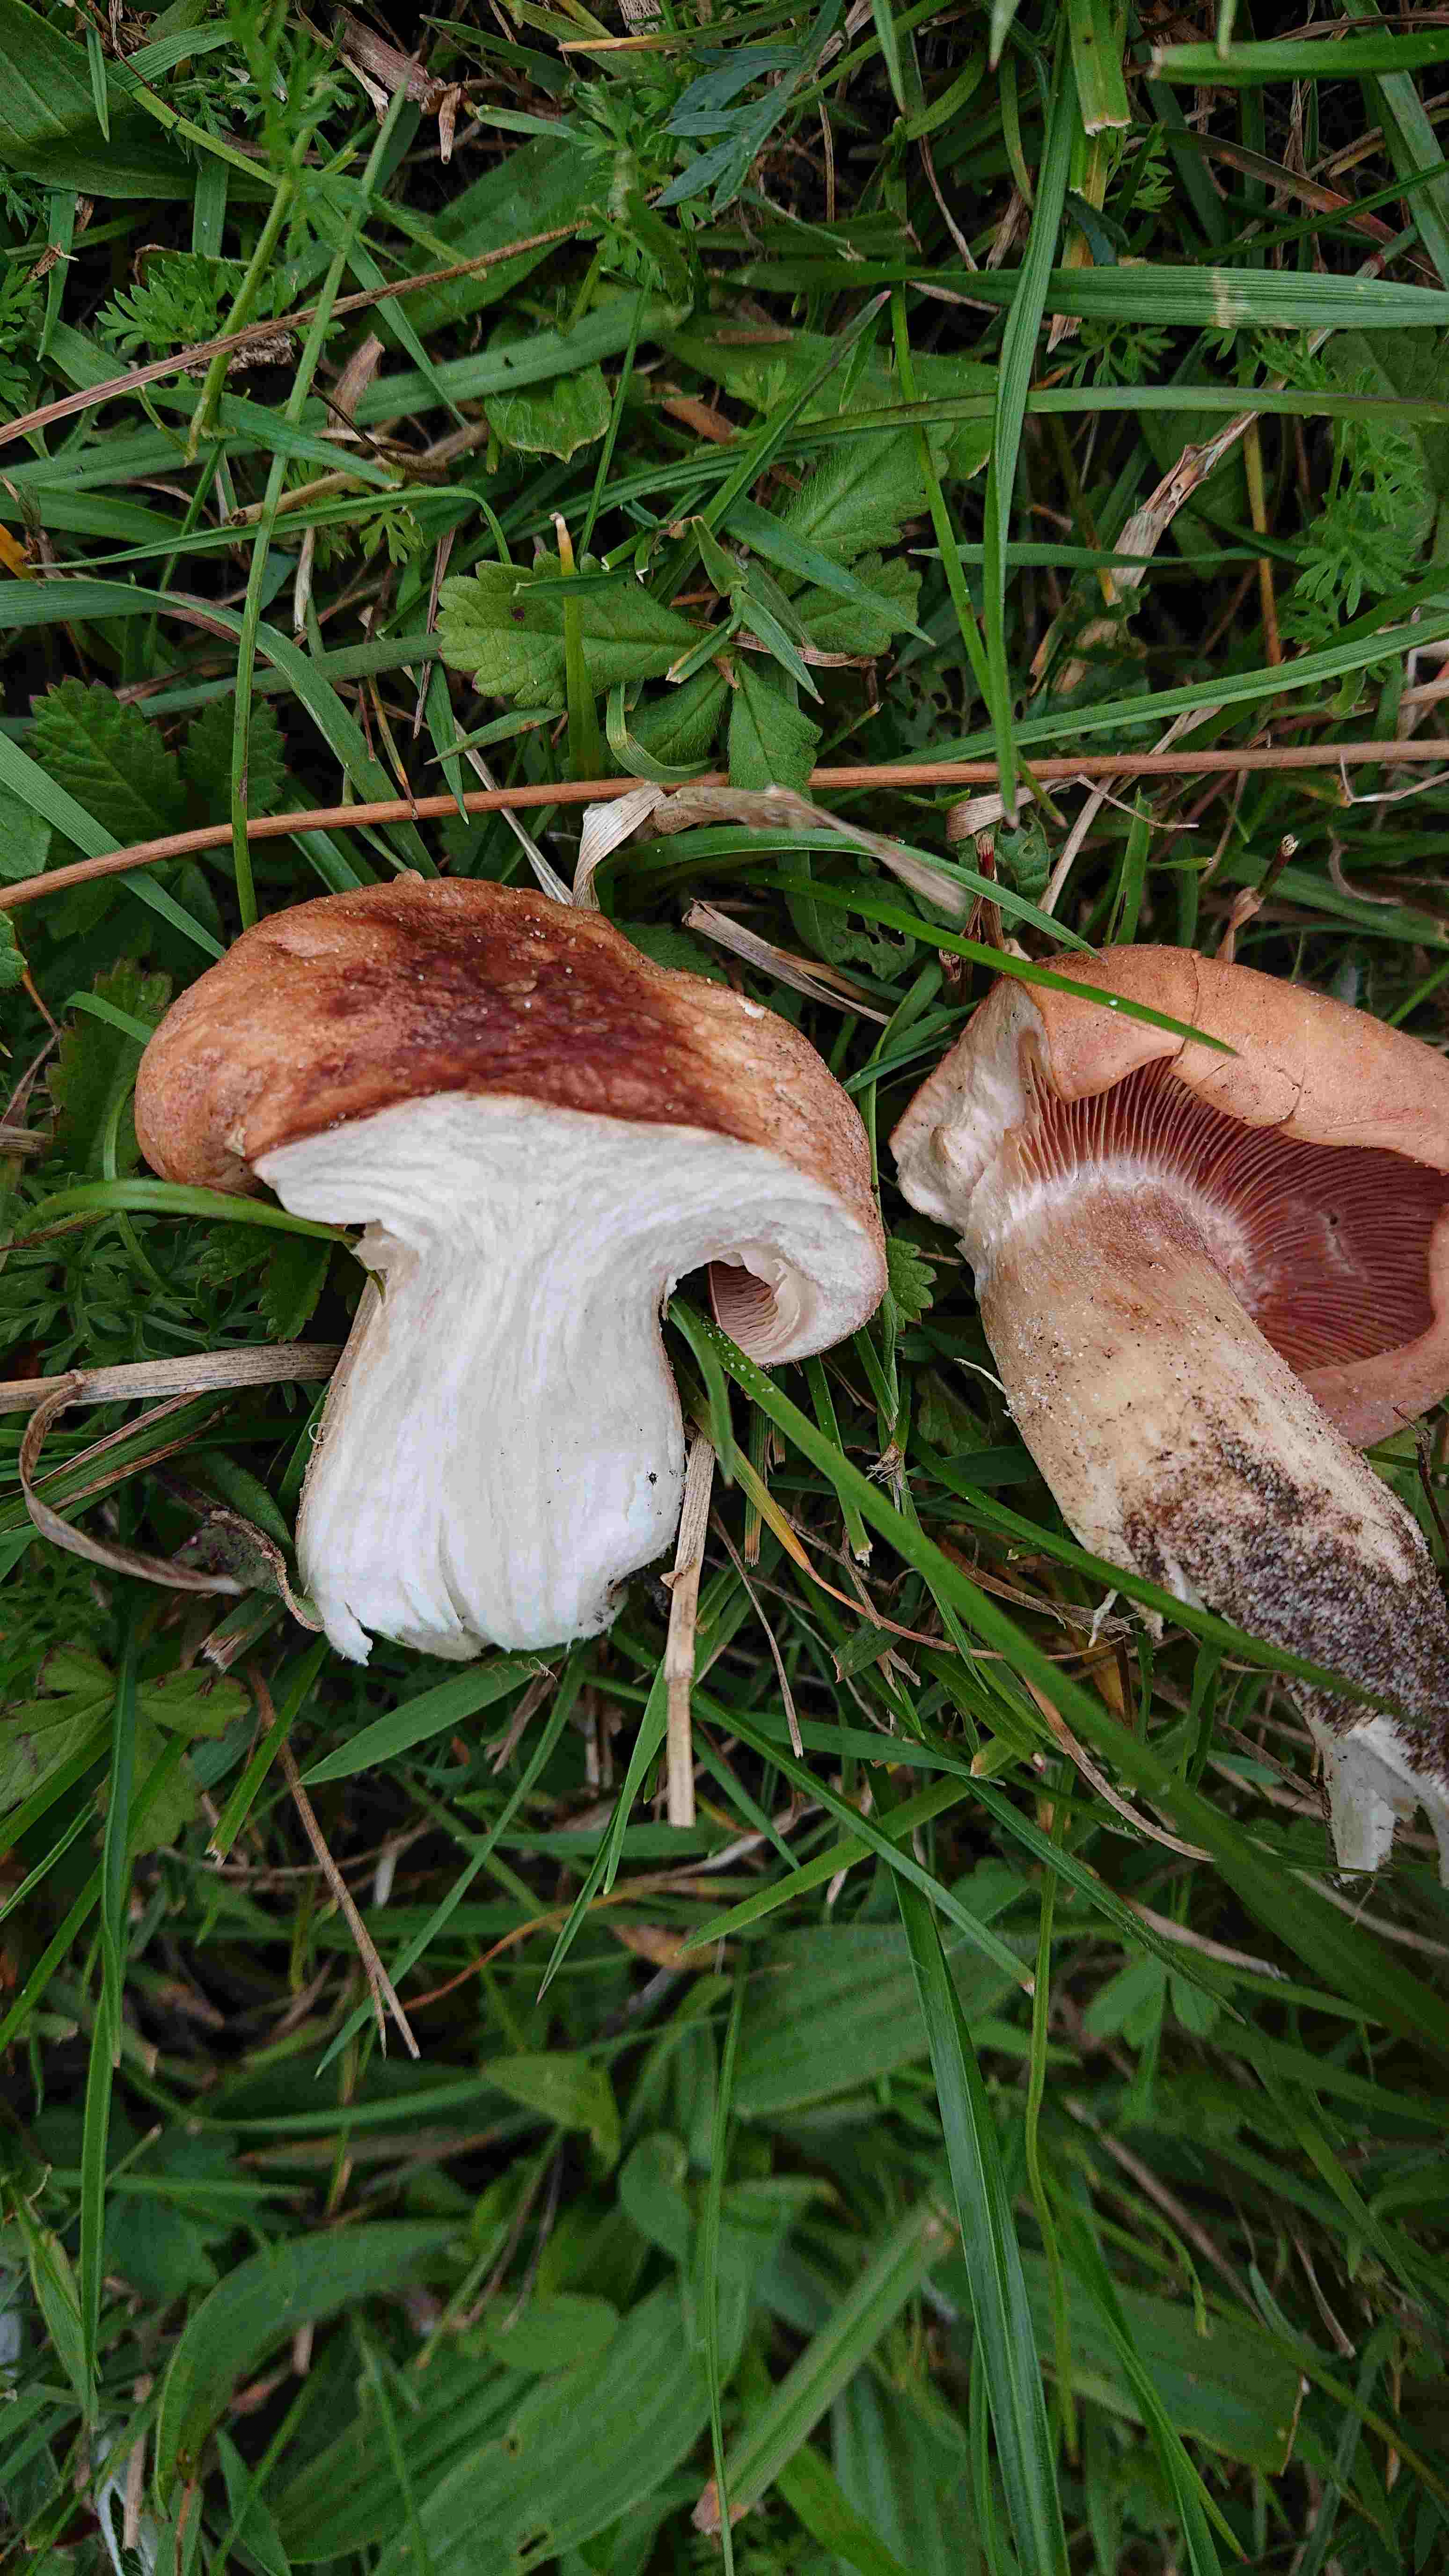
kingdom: Fungi
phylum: Basidiomycota
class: Agaricomycetes
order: Agaricales
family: Entolomataceae
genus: Clitopilus
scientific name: Clitopilus geminus
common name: kødfarvet troldhat
